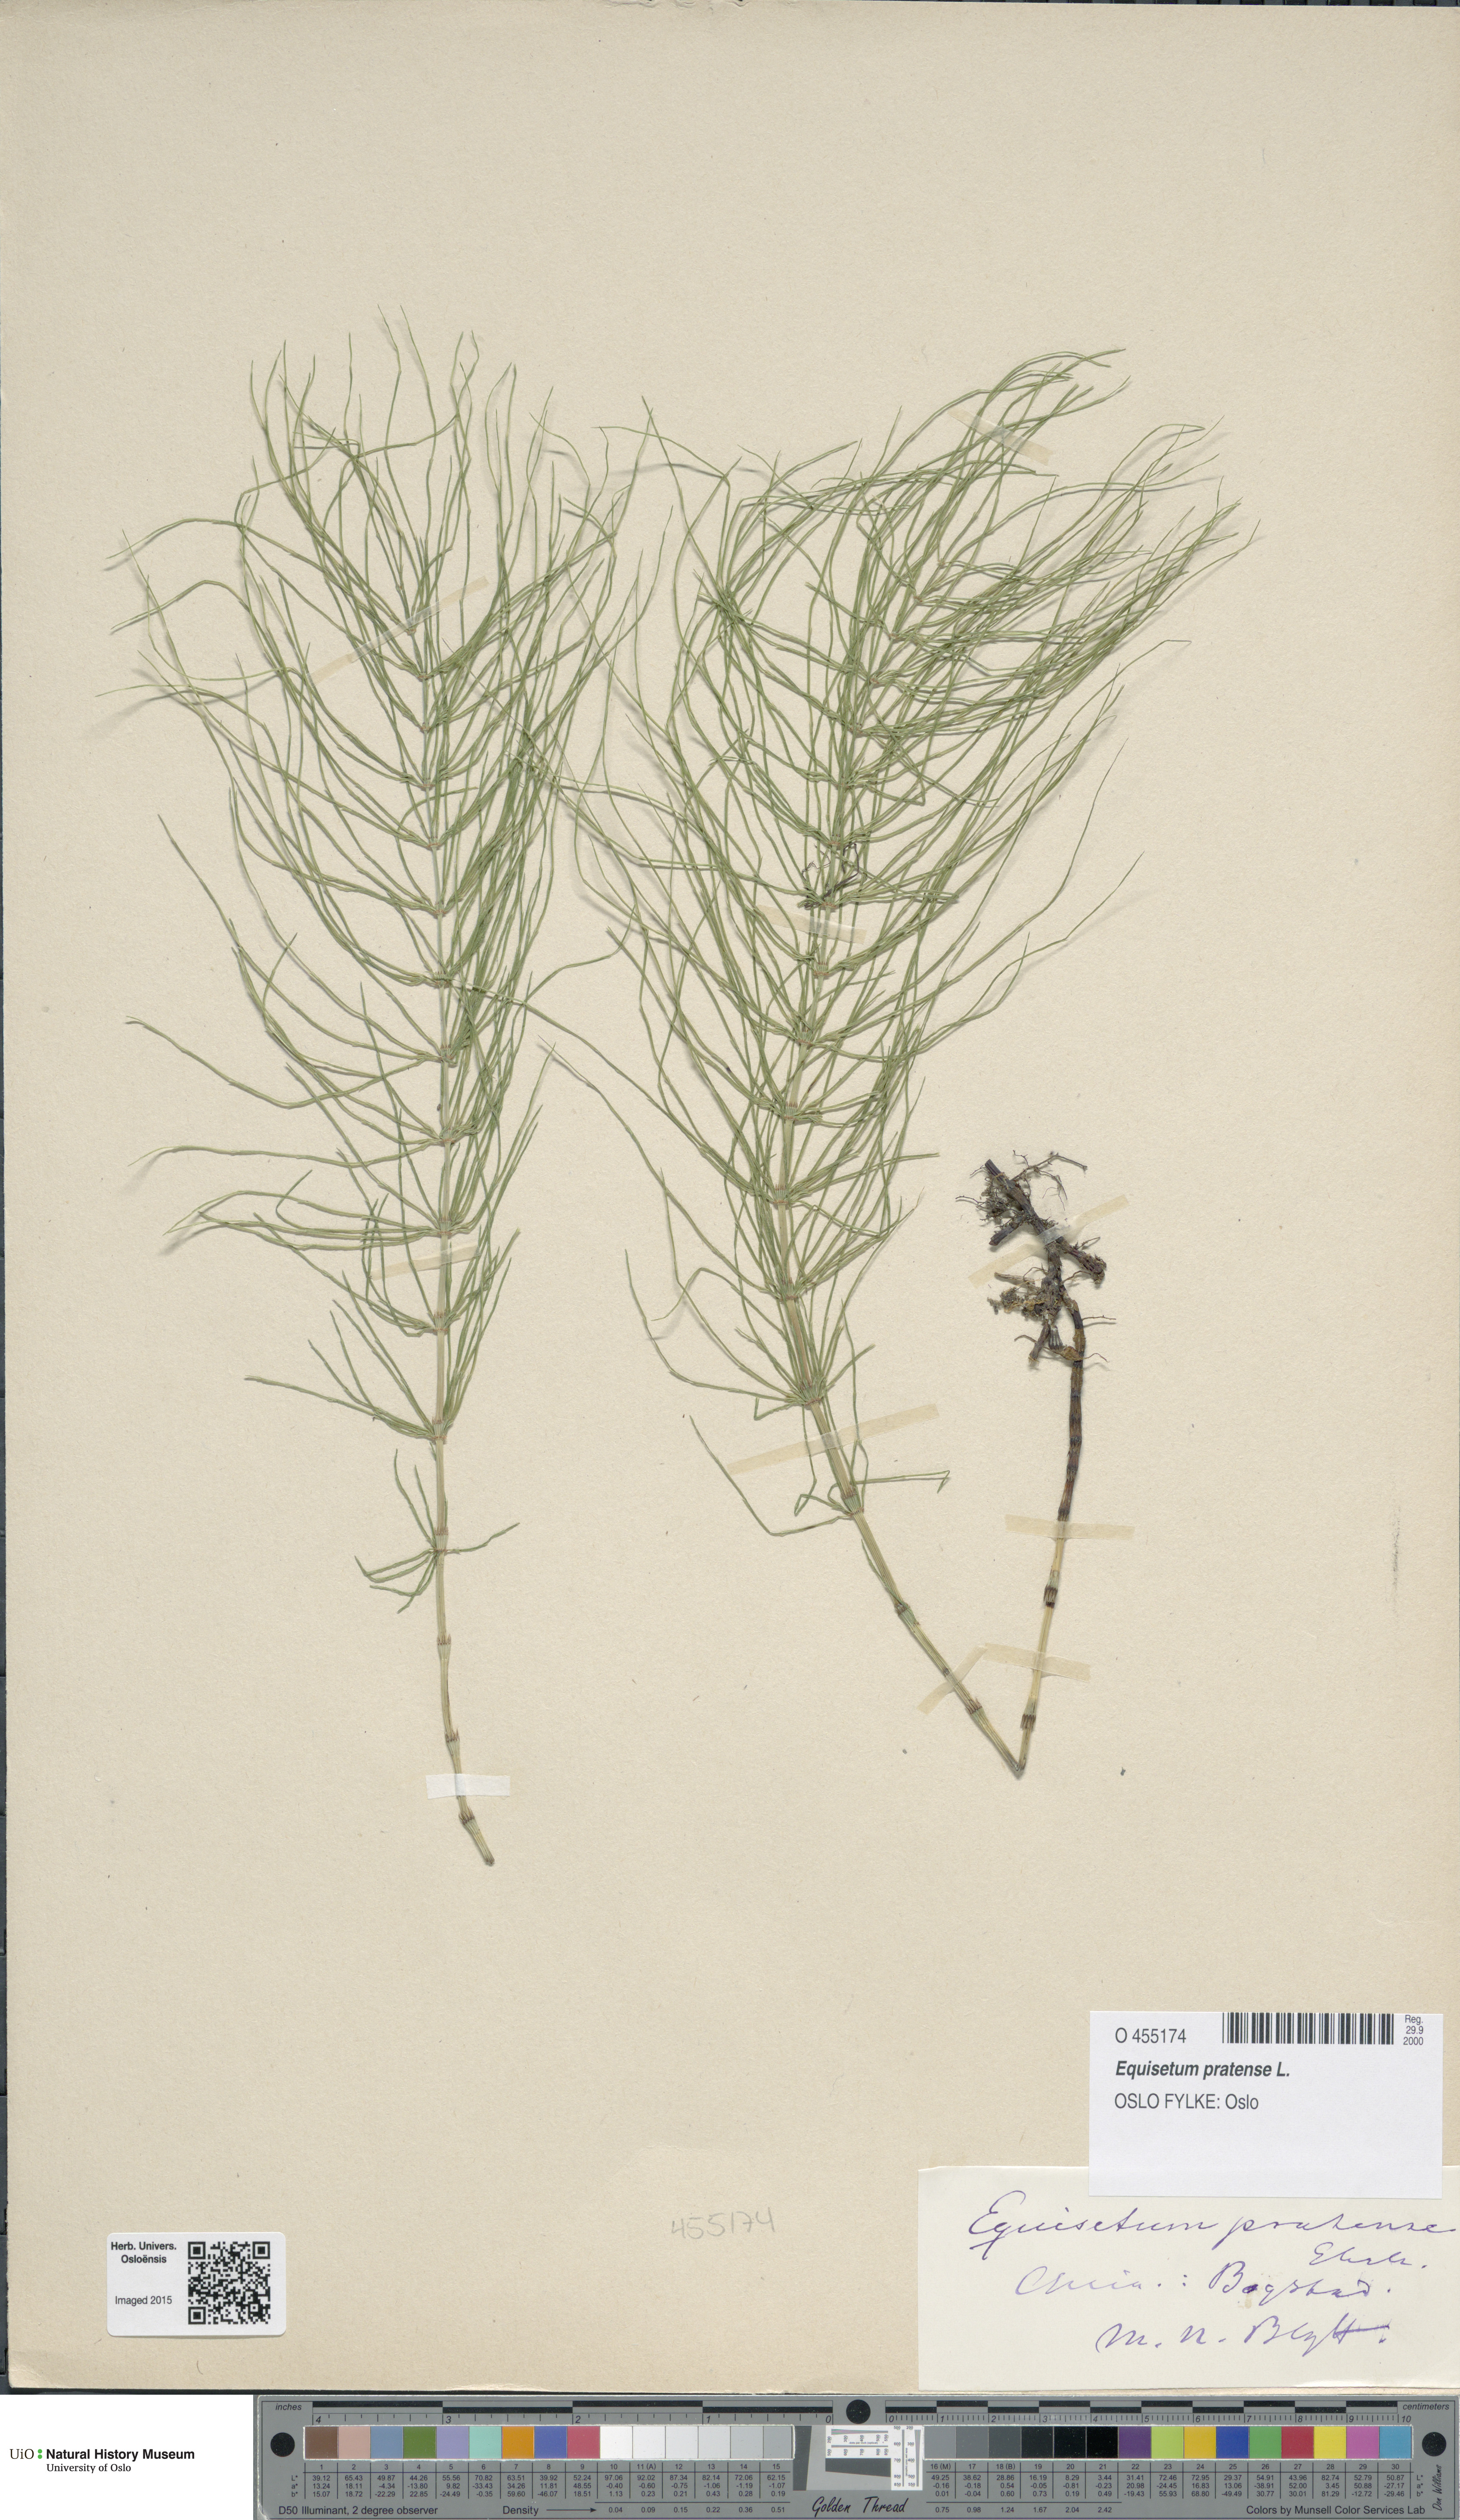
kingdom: Plantae
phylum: Tracheophyta
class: Polypodiopsida
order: Equisetales
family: Equisetaceae
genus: Equisetum
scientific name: Equisetum pratense
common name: Meadow horsetail
